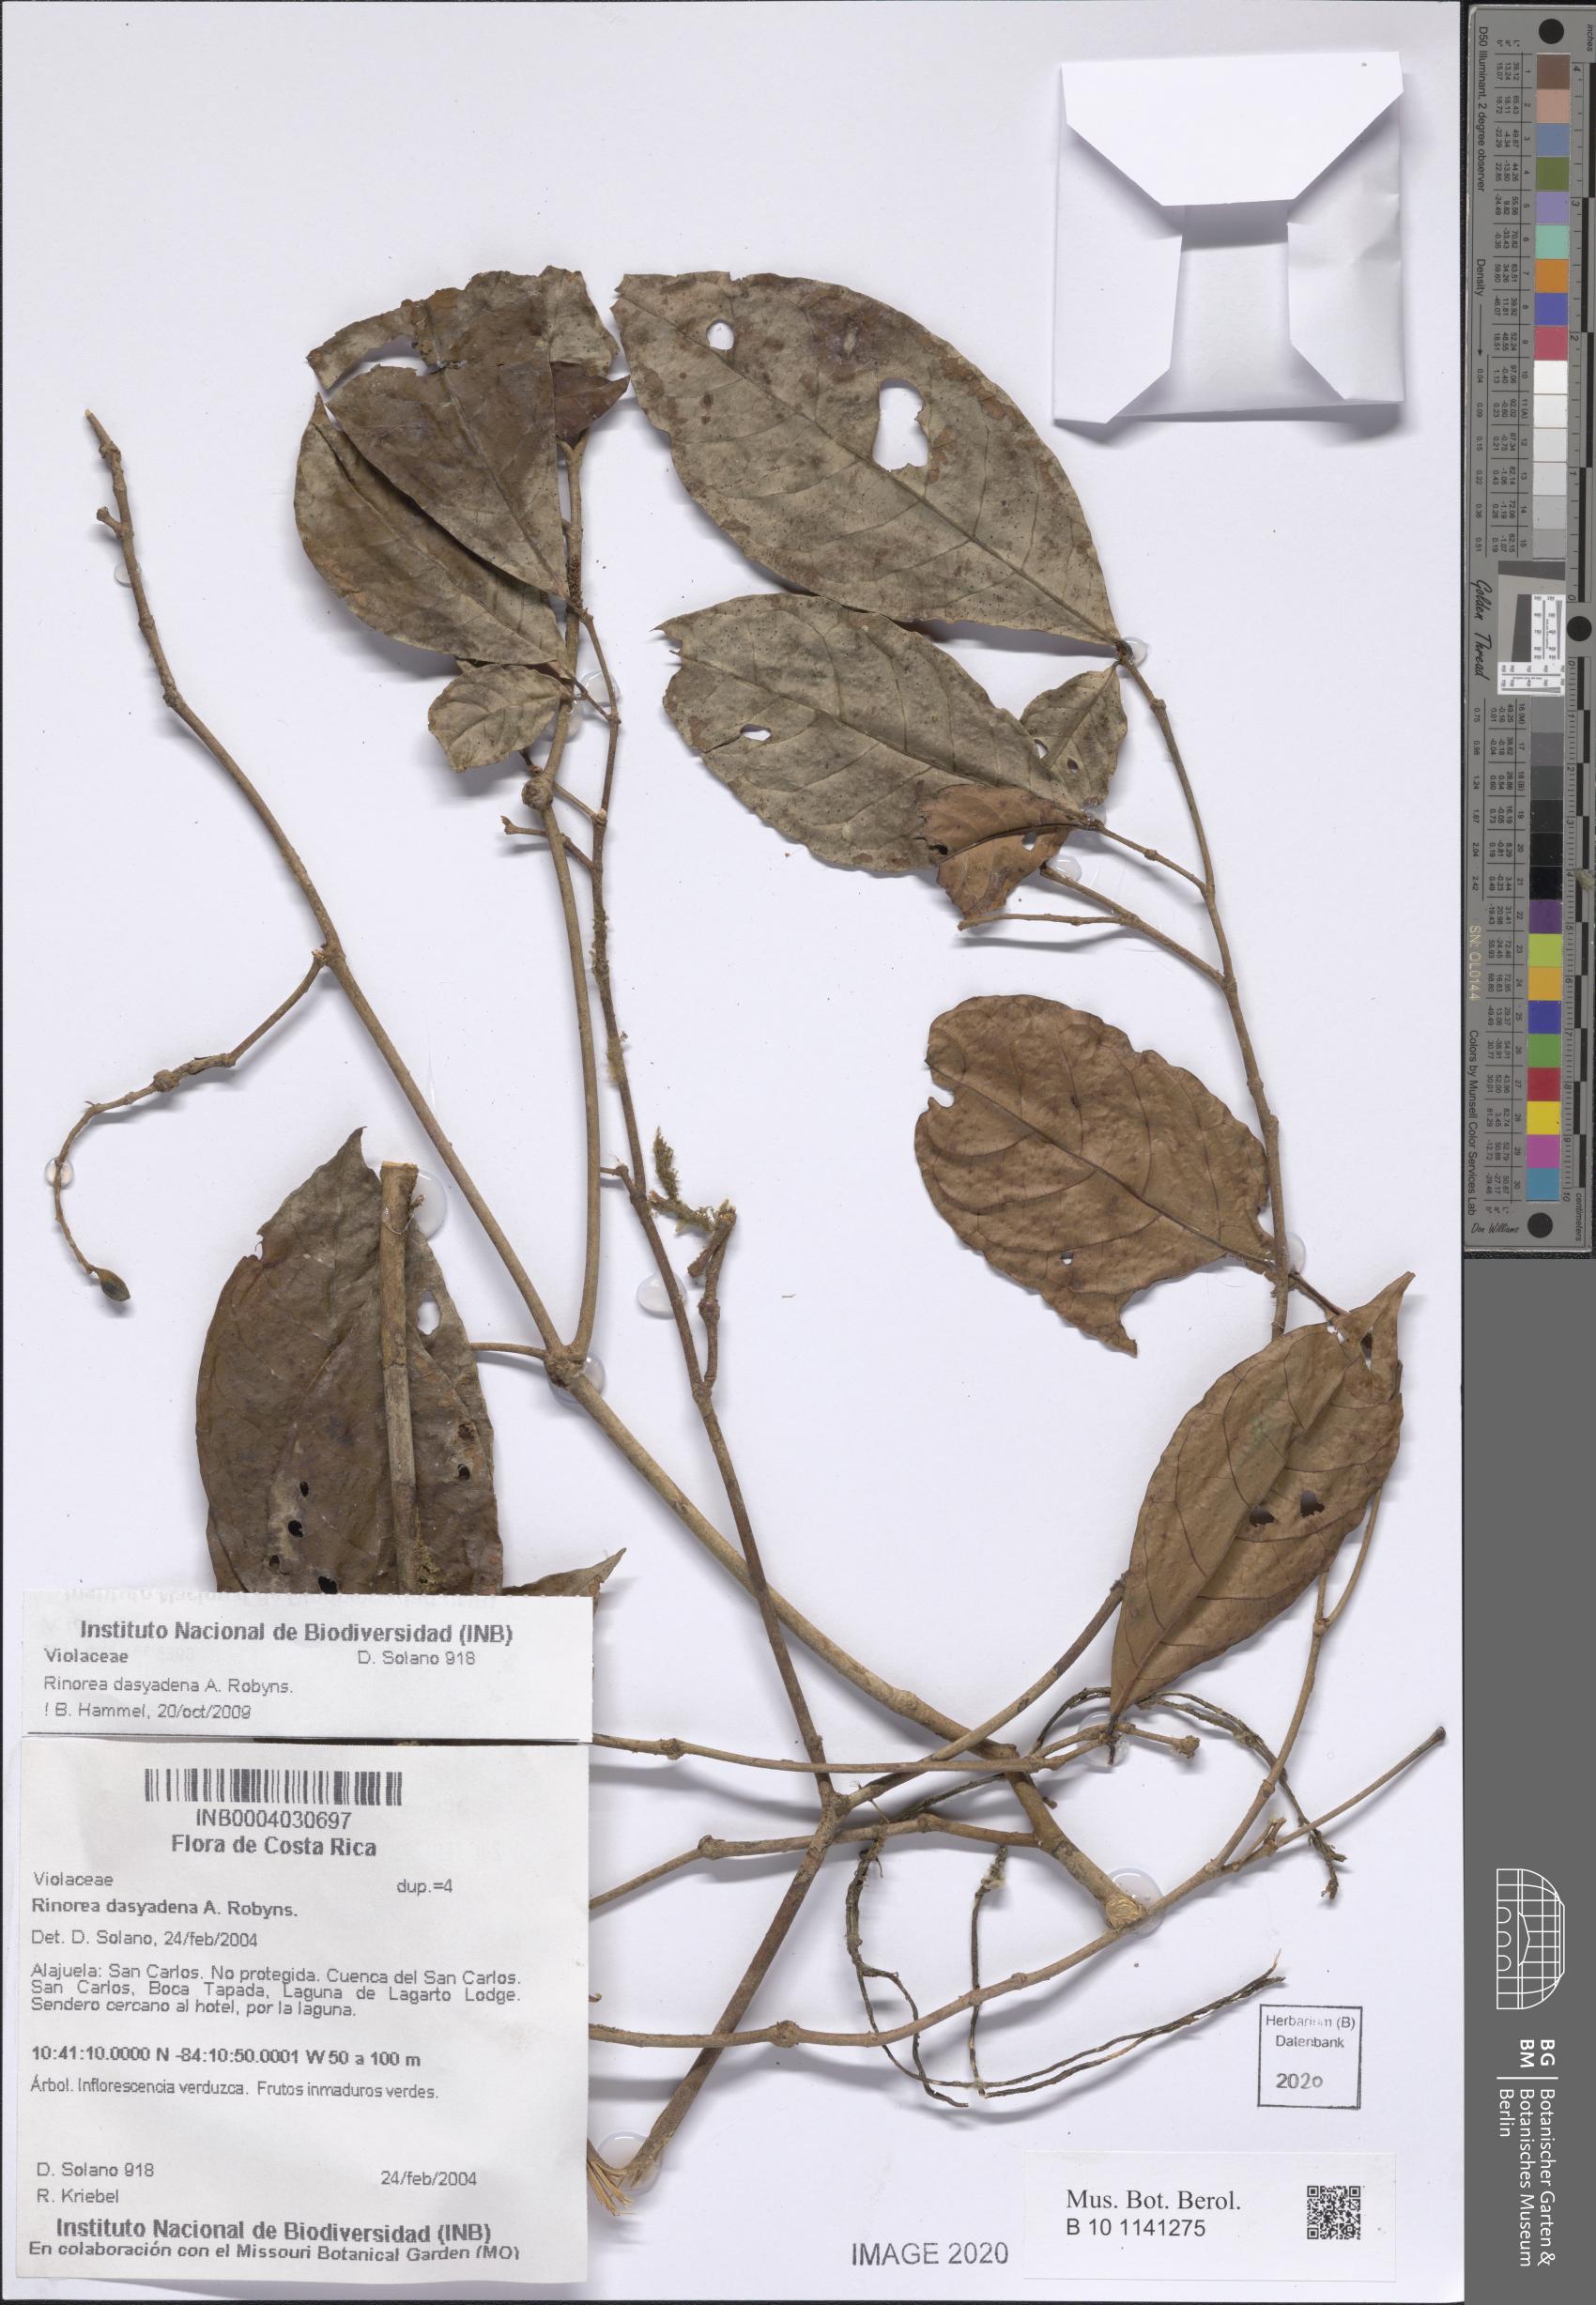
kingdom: Plantae
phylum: Tracheophyta
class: Magnoliopsida
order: Malpighiales
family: Violaceae
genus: Rinorea
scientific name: Rinorea dasyadena
